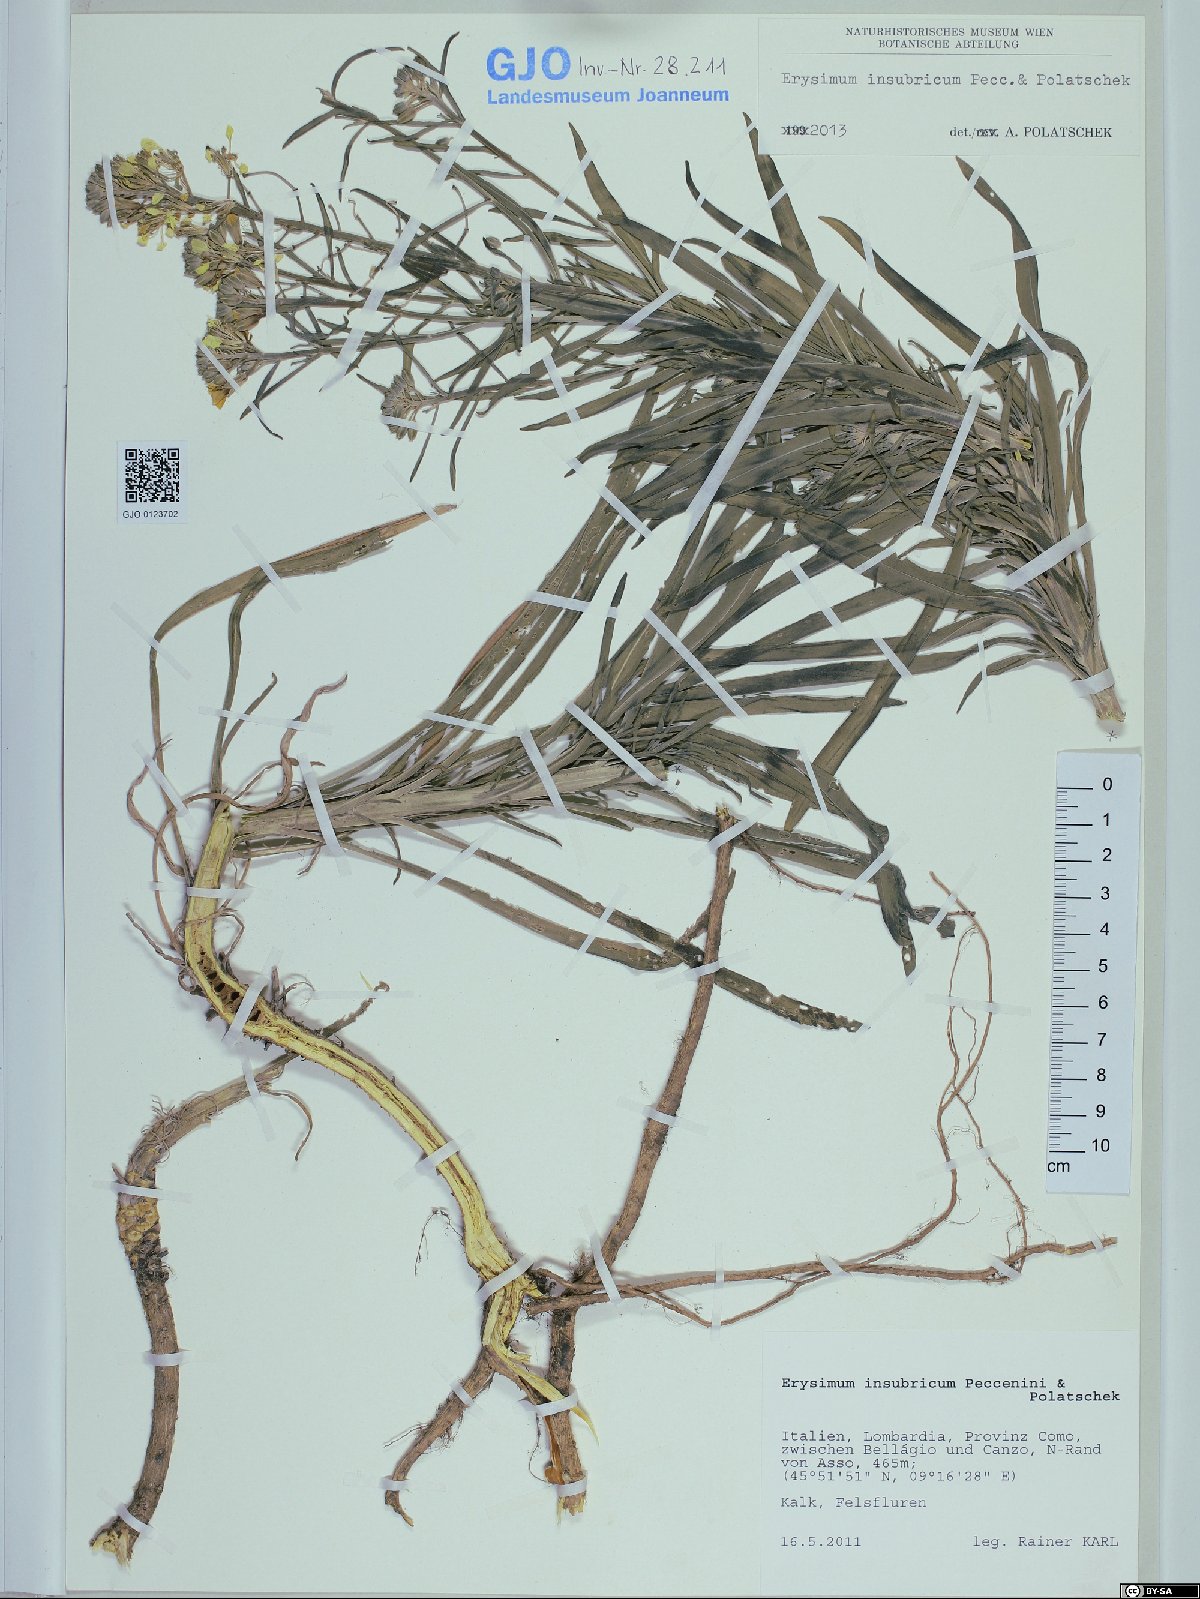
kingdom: Plantae
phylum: Tracheophyta
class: Magnoliopsida
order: Brassicales
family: Brassicaceae
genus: Erysimum
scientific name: Erysimum insubricum
